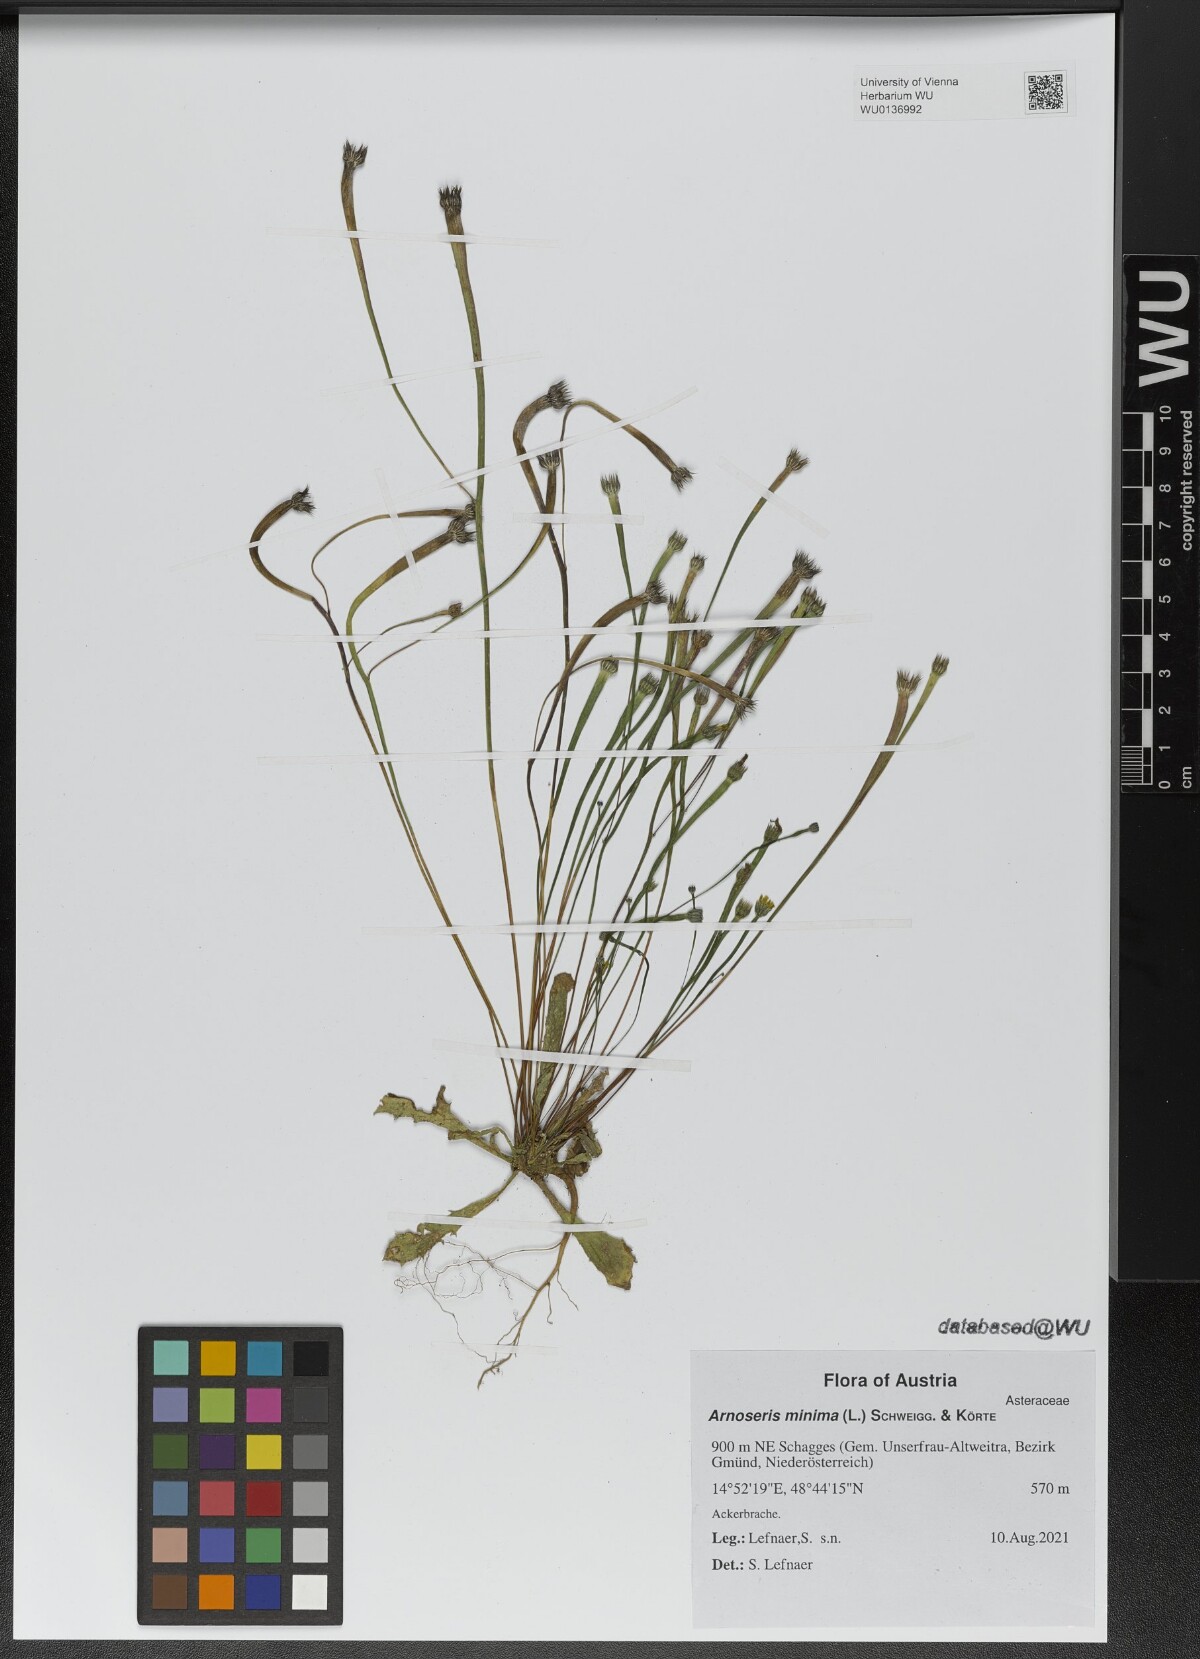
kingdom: Plantae
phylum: Tracheophyta
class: Magnoliopsida
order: Asterales
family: Asteraceae
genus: Arnoseris
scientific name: Arnoseris minima
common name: Lamb's succory
